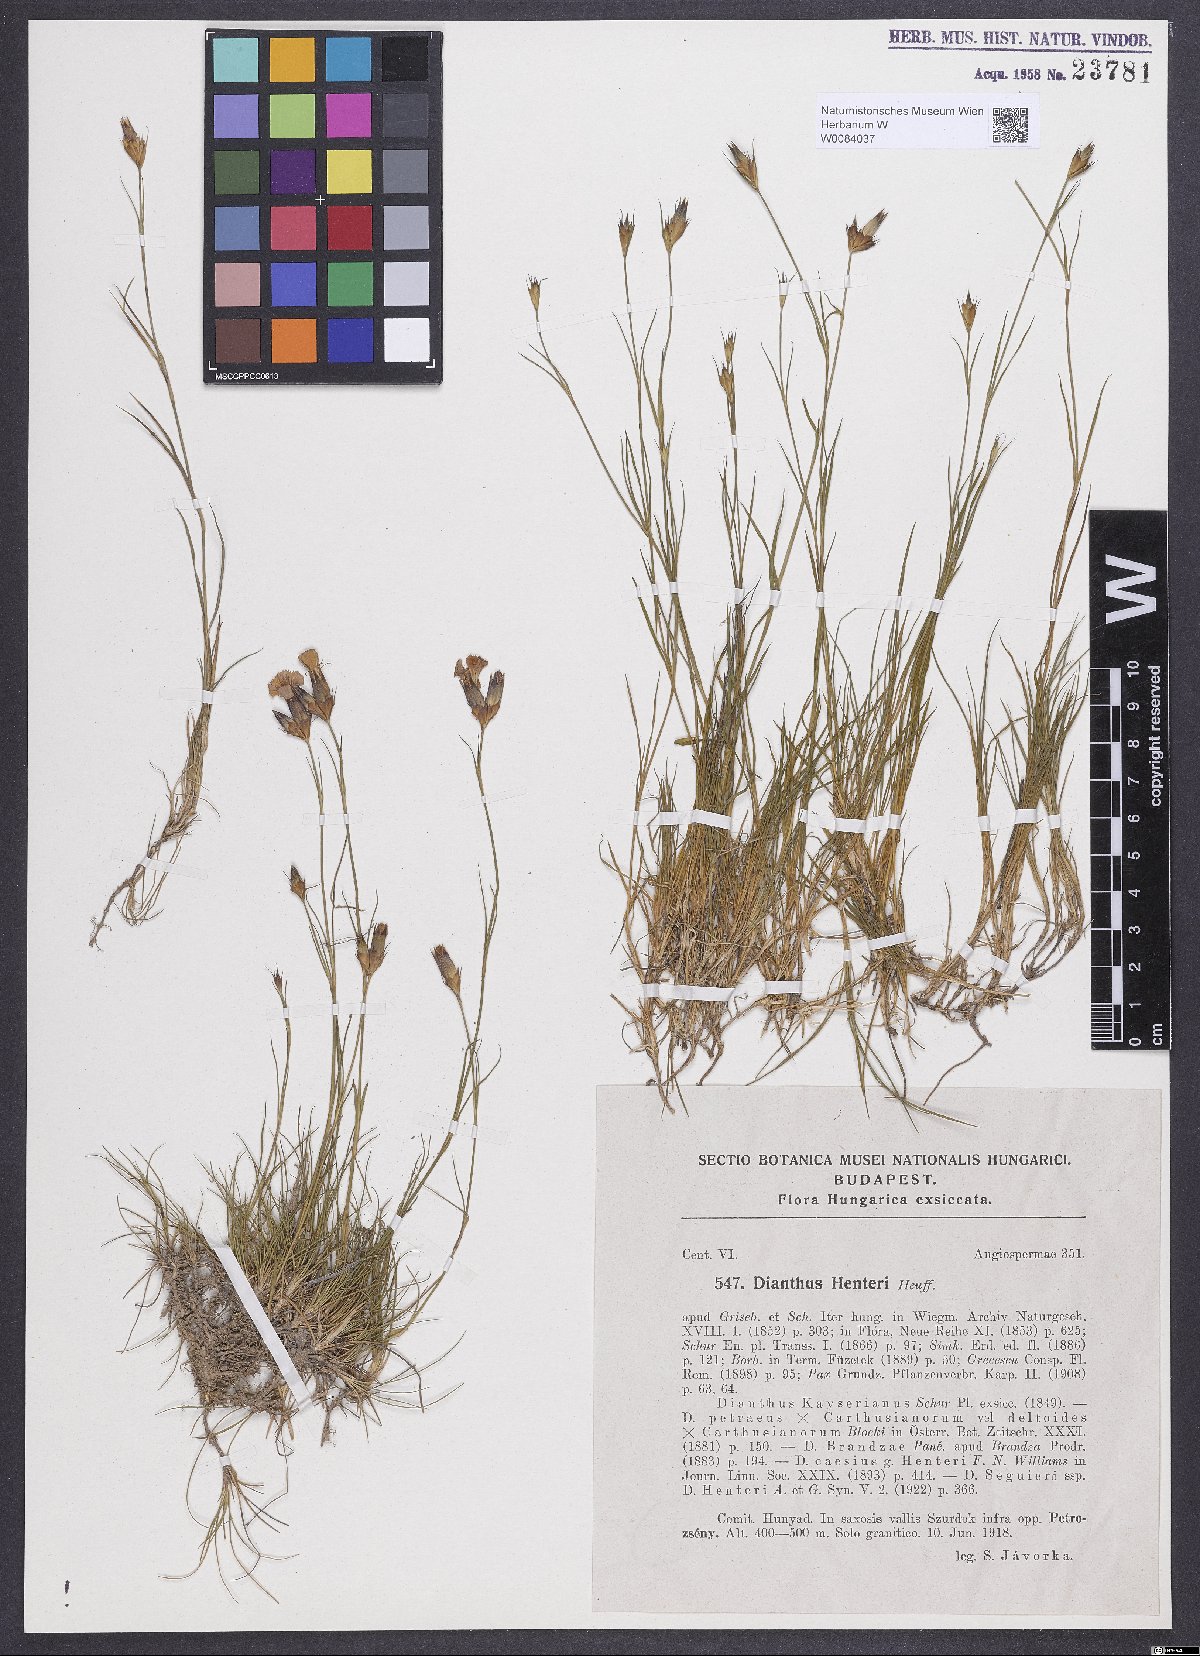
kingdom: Plantae
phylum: Tracheophyta
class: Magnoliopsida
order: Caryophyllales
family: Caryophyllaceae
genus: Dianthus
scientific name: Dianthus henteri
